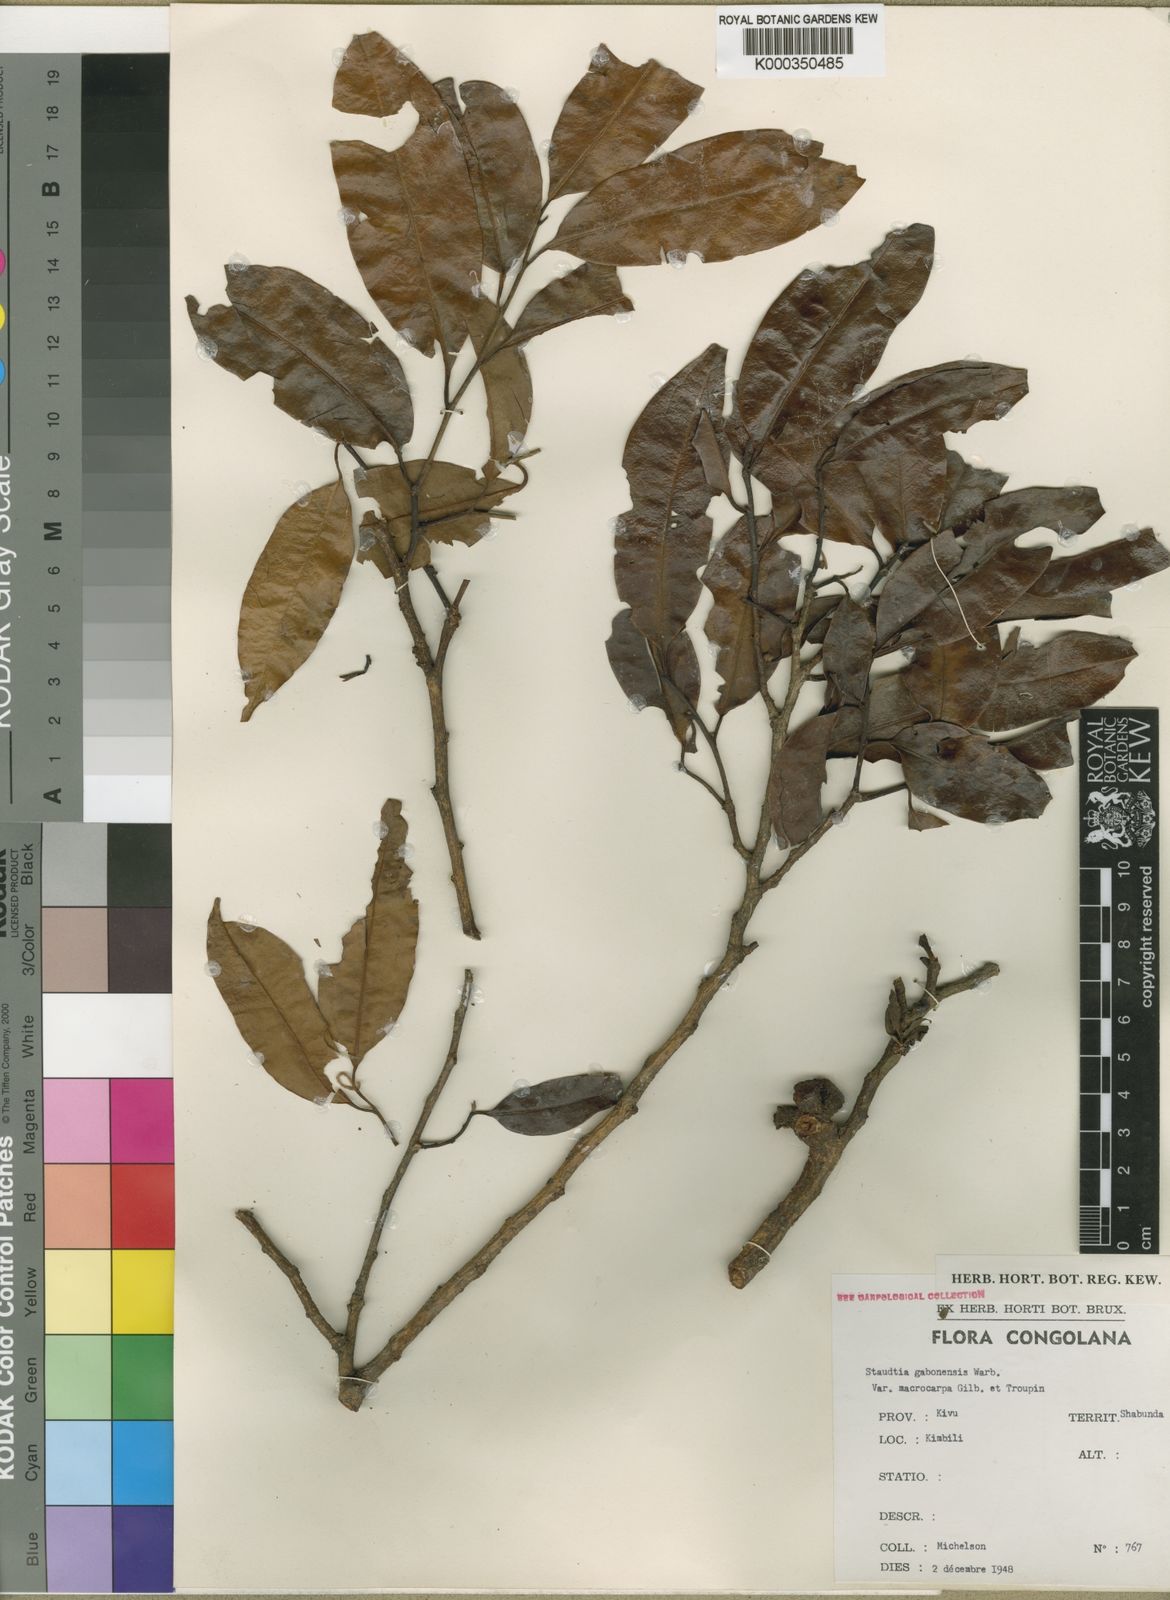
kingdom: Plantae
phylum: Tracheophyta
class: Magnoliopsida
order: Magnoliales
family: Myristicaceae
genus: Staudtia
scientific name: Staudtia kamerunensis
